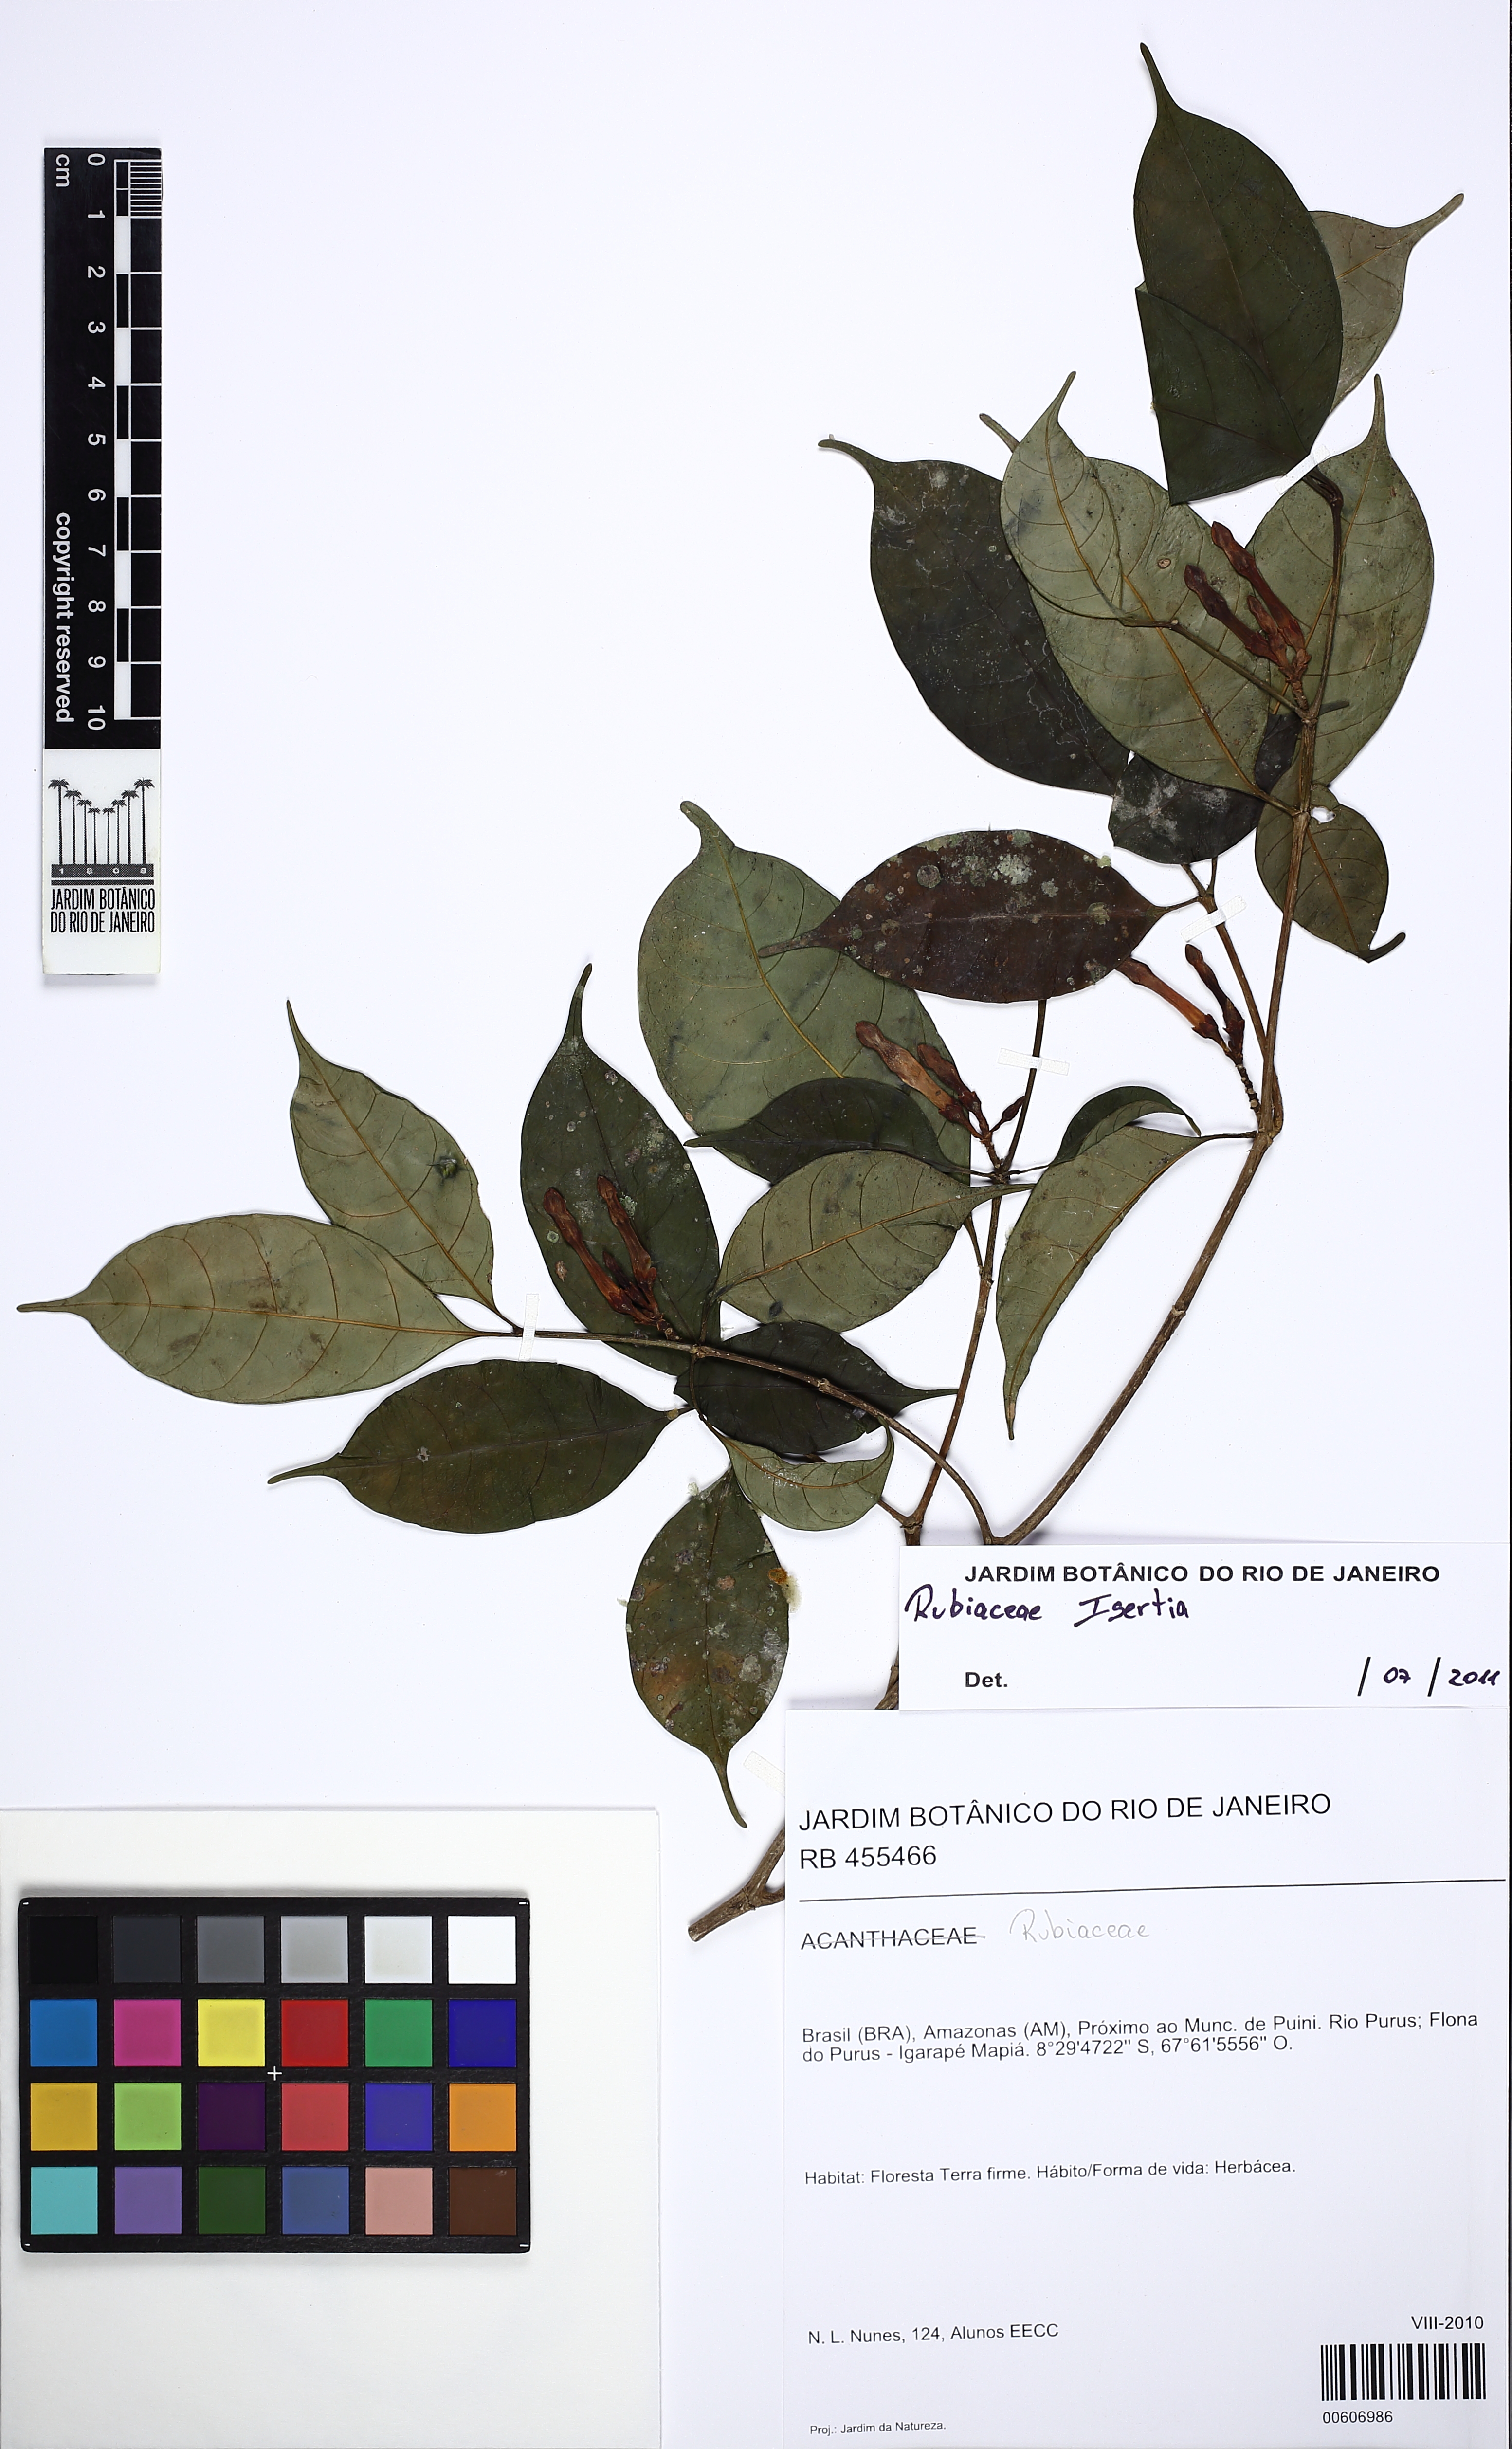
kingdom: Plantae
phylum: Tracheophyta
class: Magnoliopsida
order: Gentianales
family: Apocynaceae
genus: Tabernaemontana
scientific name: Tabernaemontana
